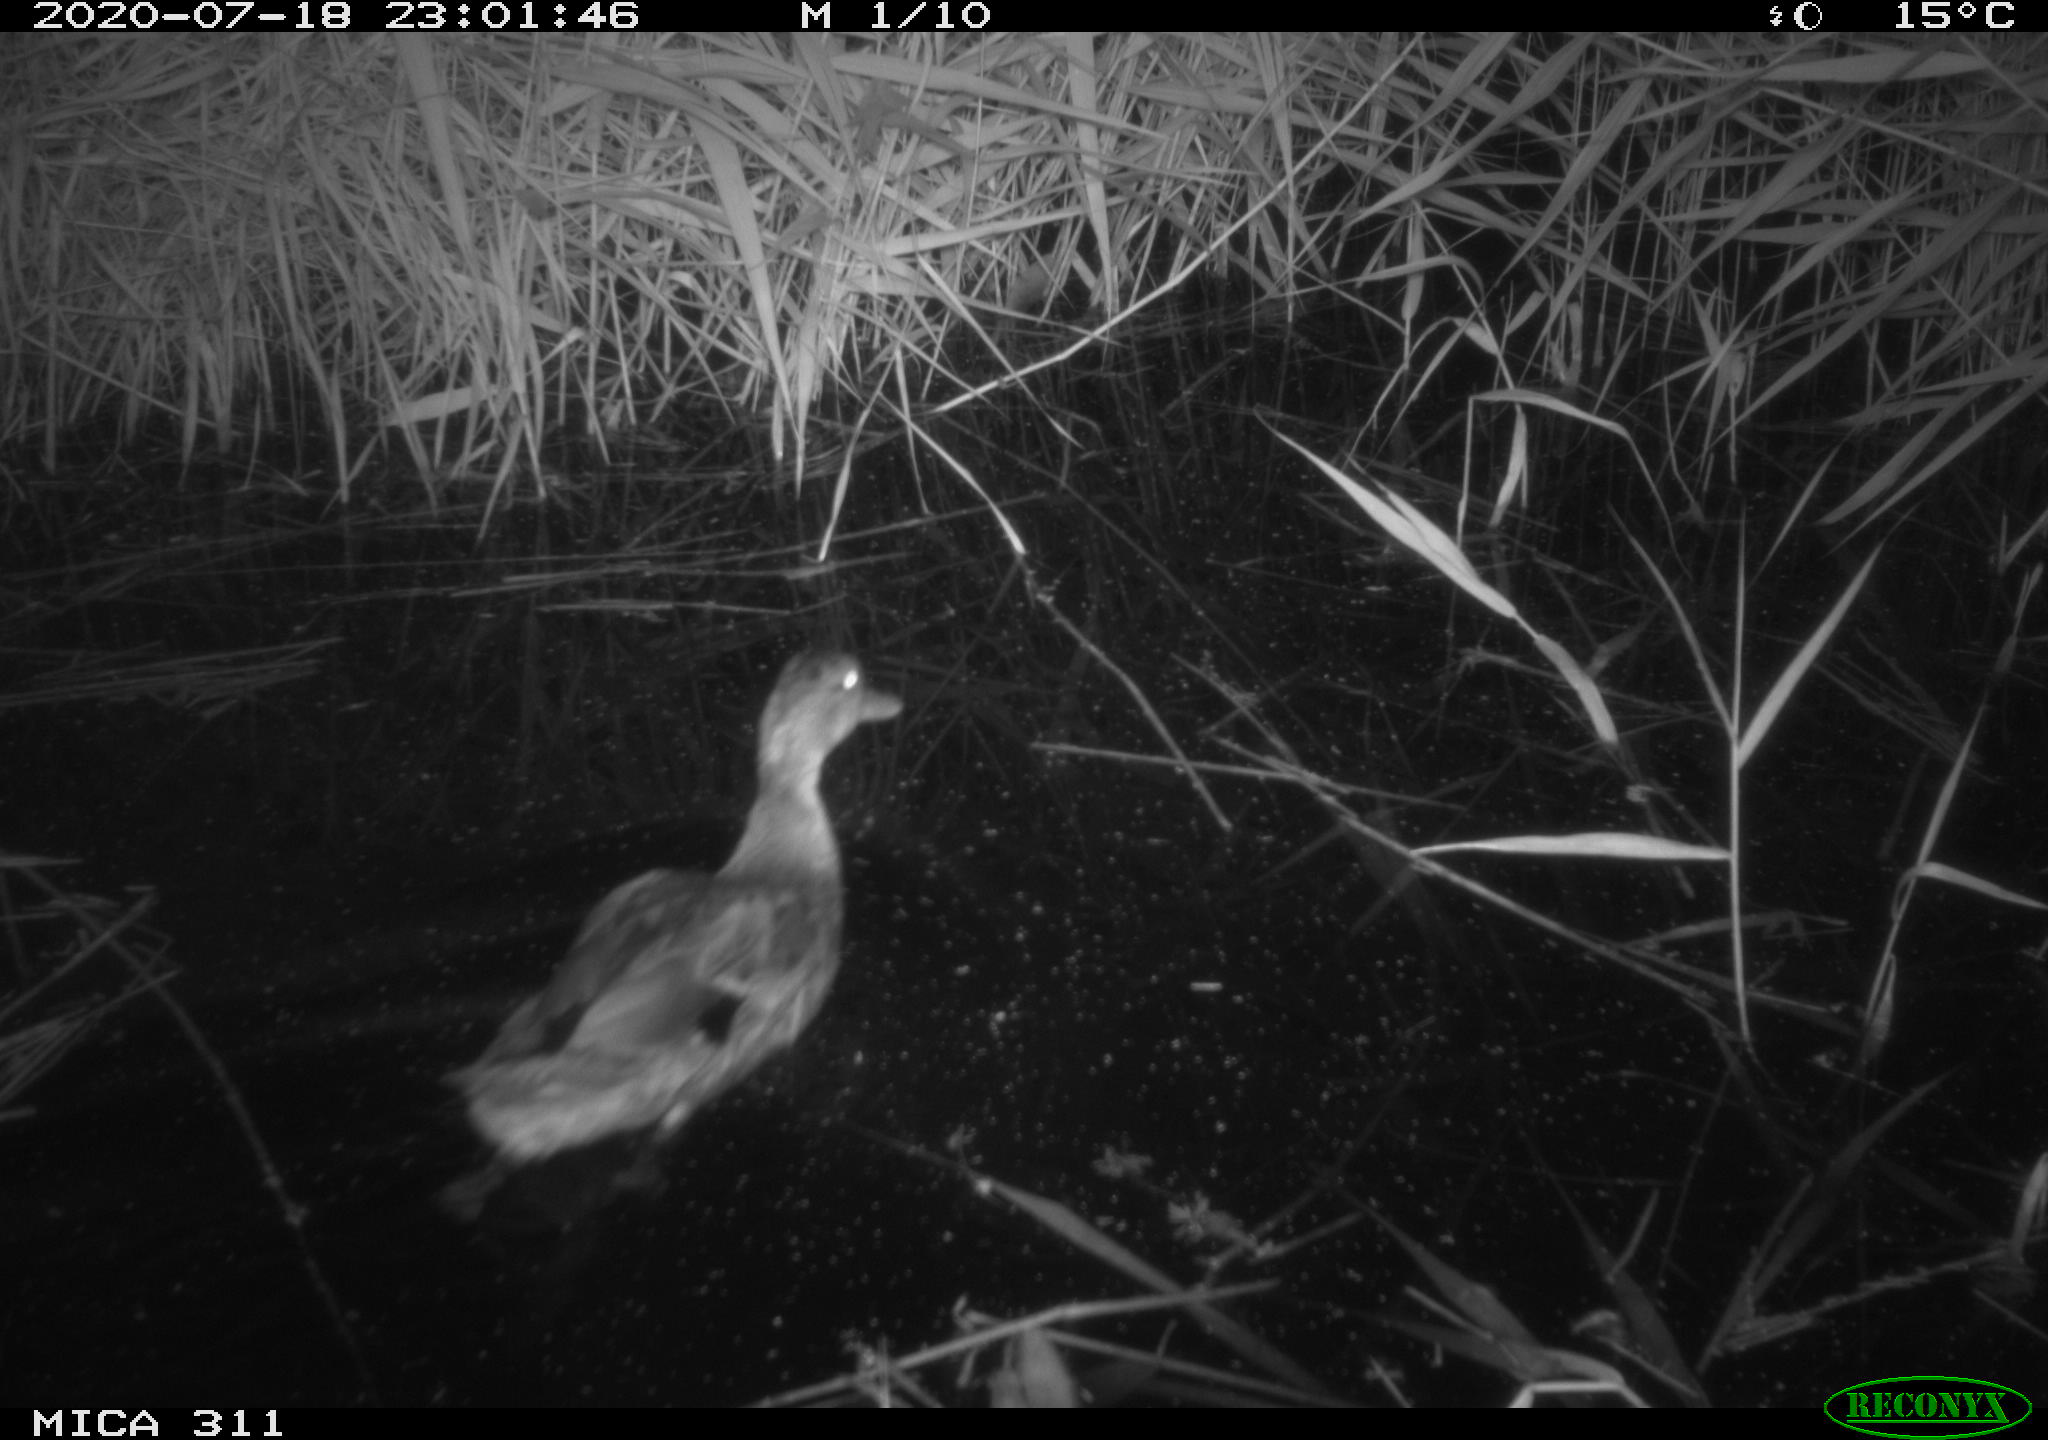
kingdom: Animalia
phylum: Chordata
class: Aves
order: Anseriformes
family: Anatidae
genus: Anas
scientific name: Anas platyrhynchos
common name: Mallard
